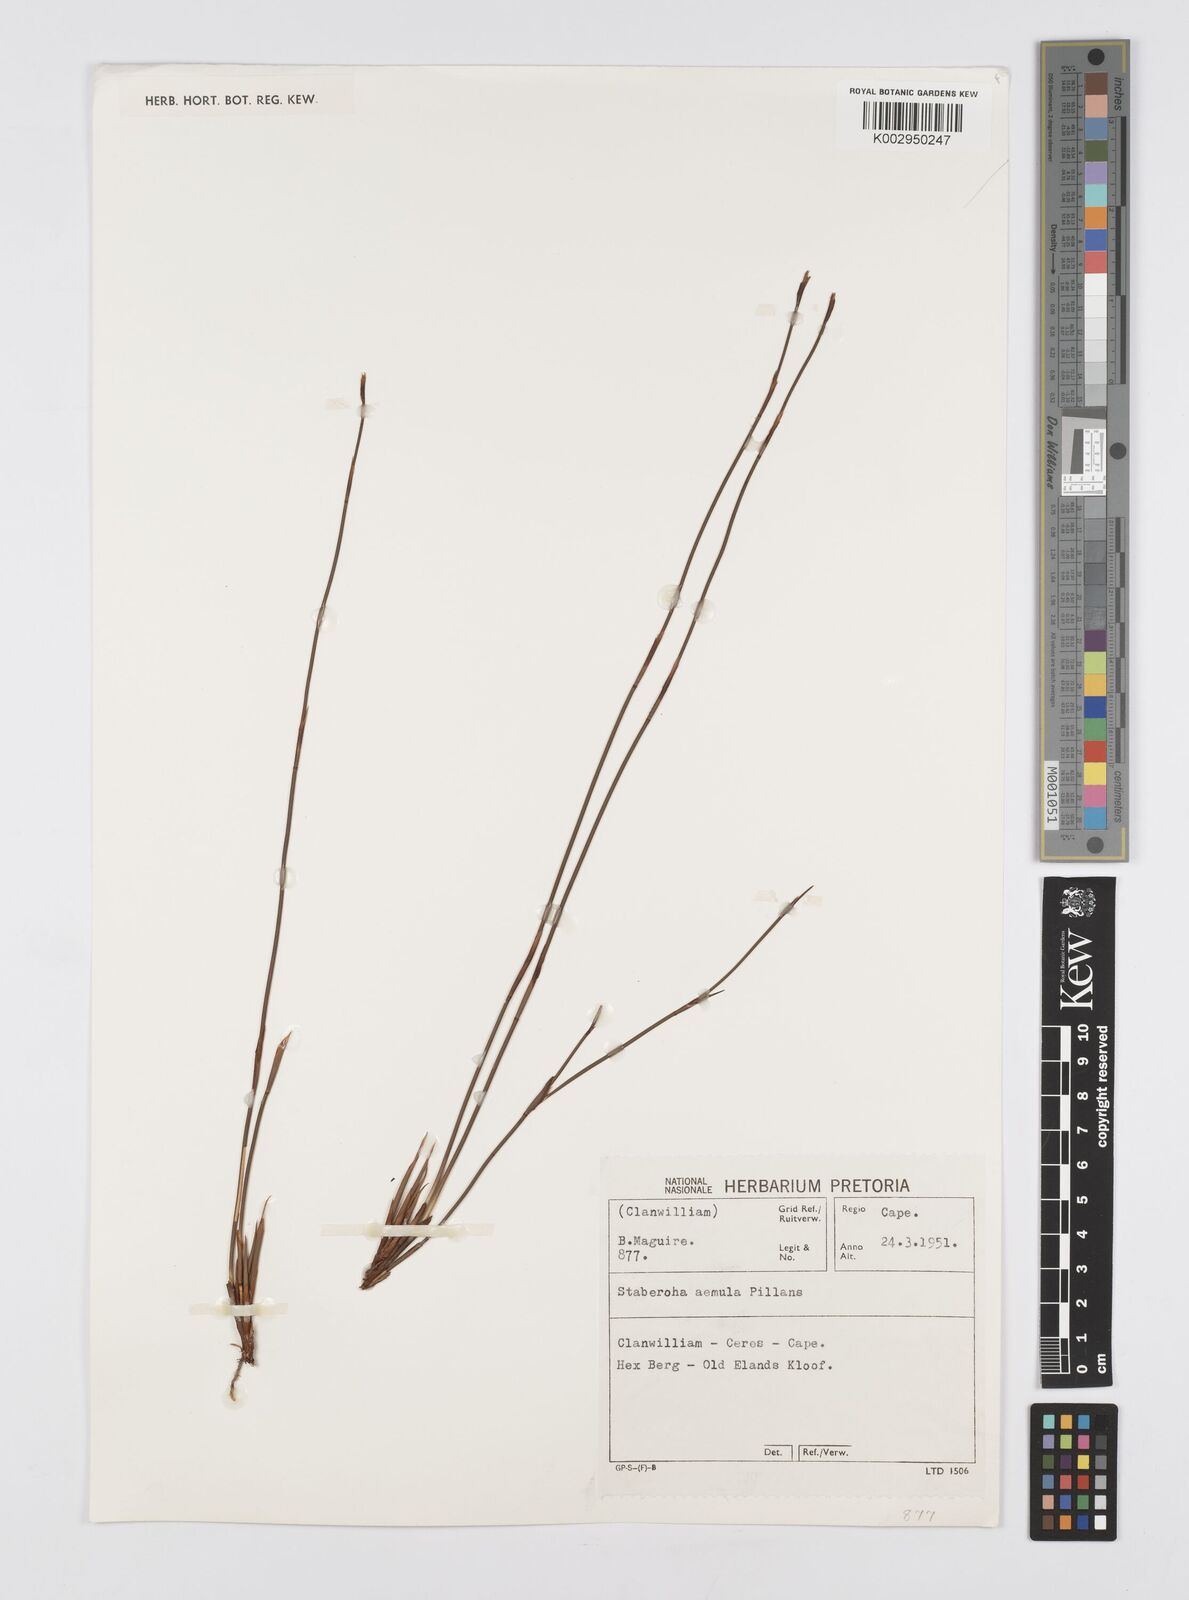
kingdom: Plantae
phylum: Tracheophyta
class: Liliopsida
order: Poales
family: Restionaceae
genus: Staberoha
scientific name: Staberoha aemula
